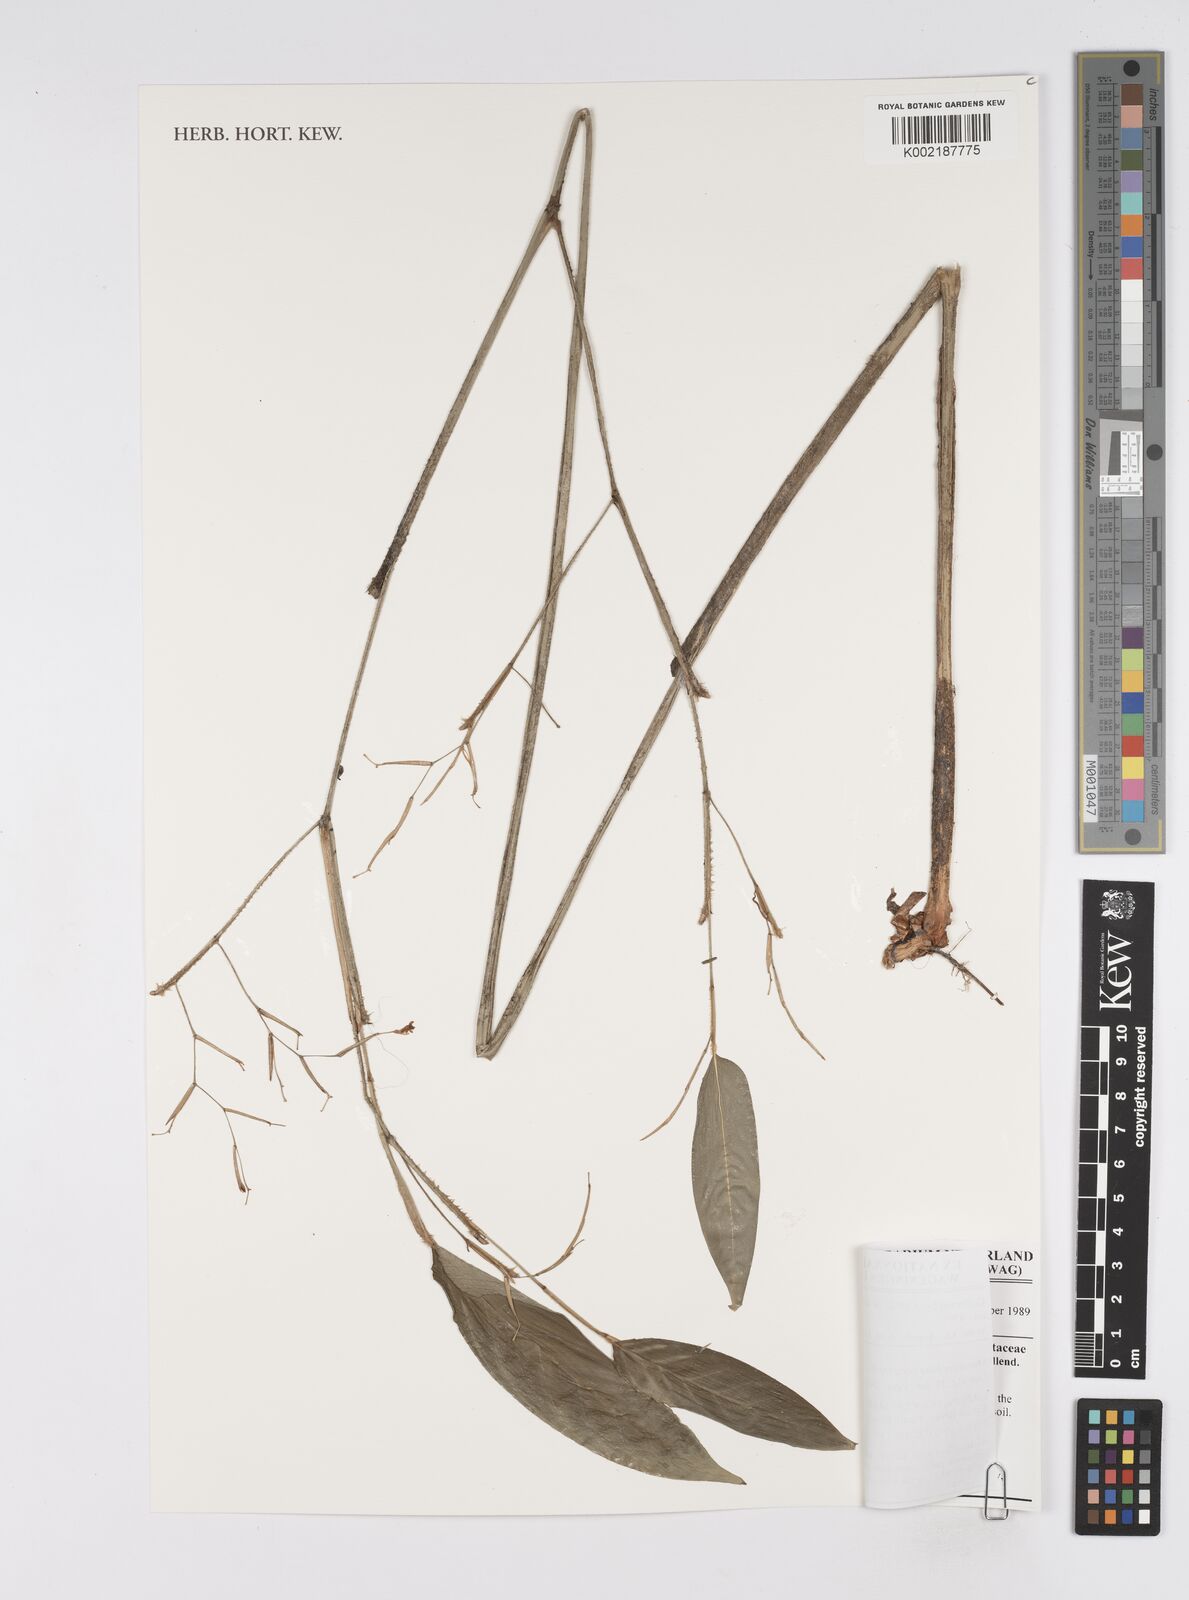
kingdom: Plantae
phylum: Tracheophyta
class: Liliopsida
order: Zingiberales
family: Marantaceae
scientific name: Marantaceae
